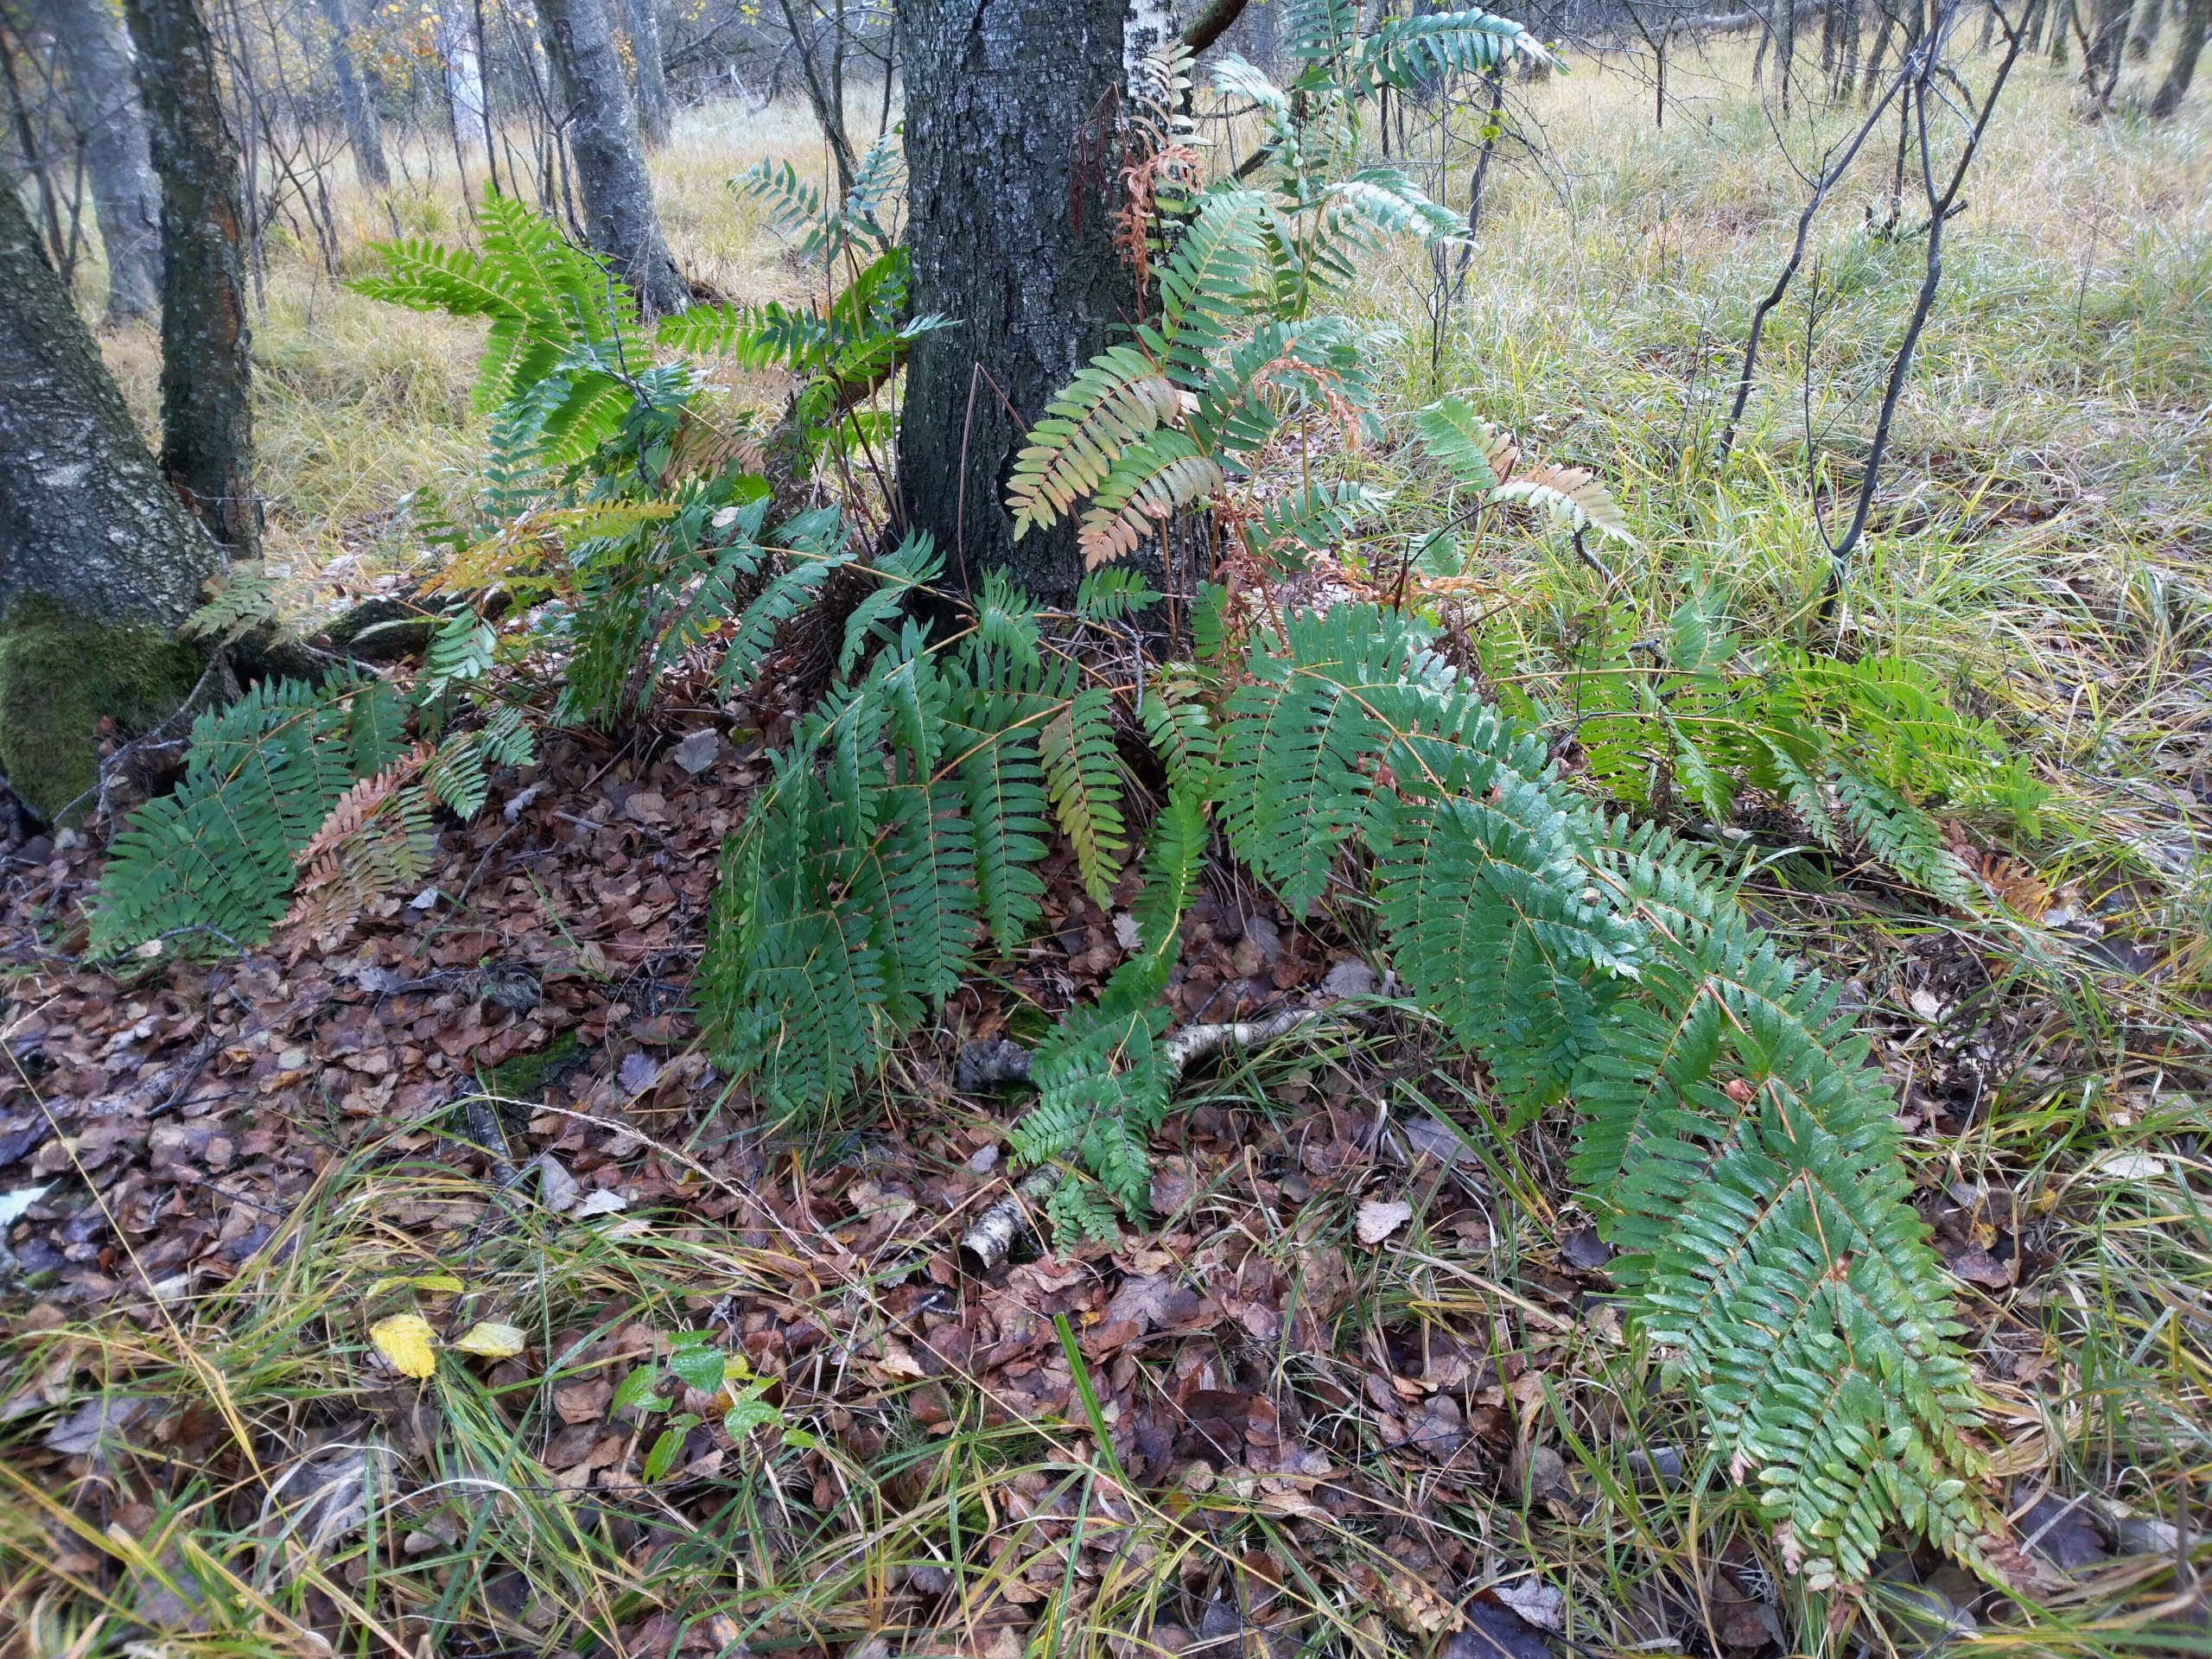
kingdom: Plantae
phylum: Tracheophyta
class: Polypodiopsida
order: Osmundales
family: Osmundaceae
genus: Osmunda
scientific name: Osmunda regalis
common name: Kongebregne
